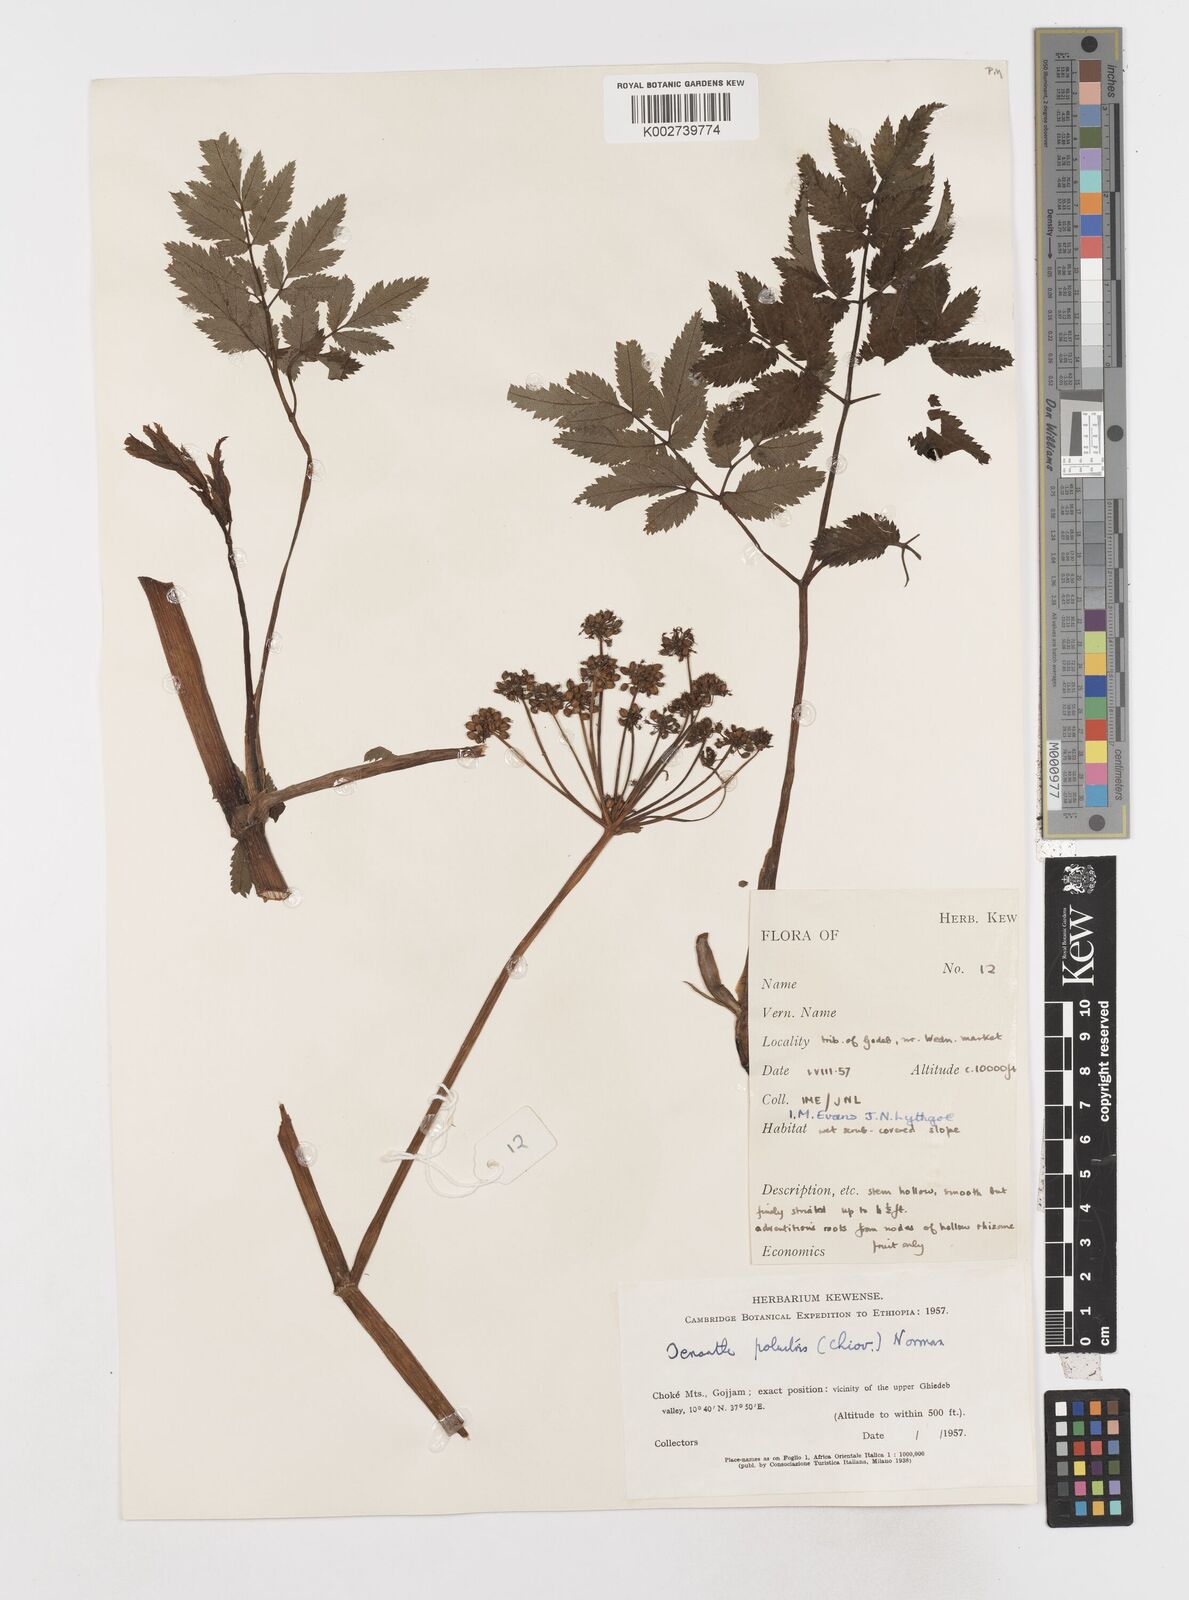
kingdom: Plantae
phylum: Tracheophyta
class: Magnoliopsida
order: Apiales
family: Apiaceae
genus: Oenanthe
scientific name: Oenanthe palustris
